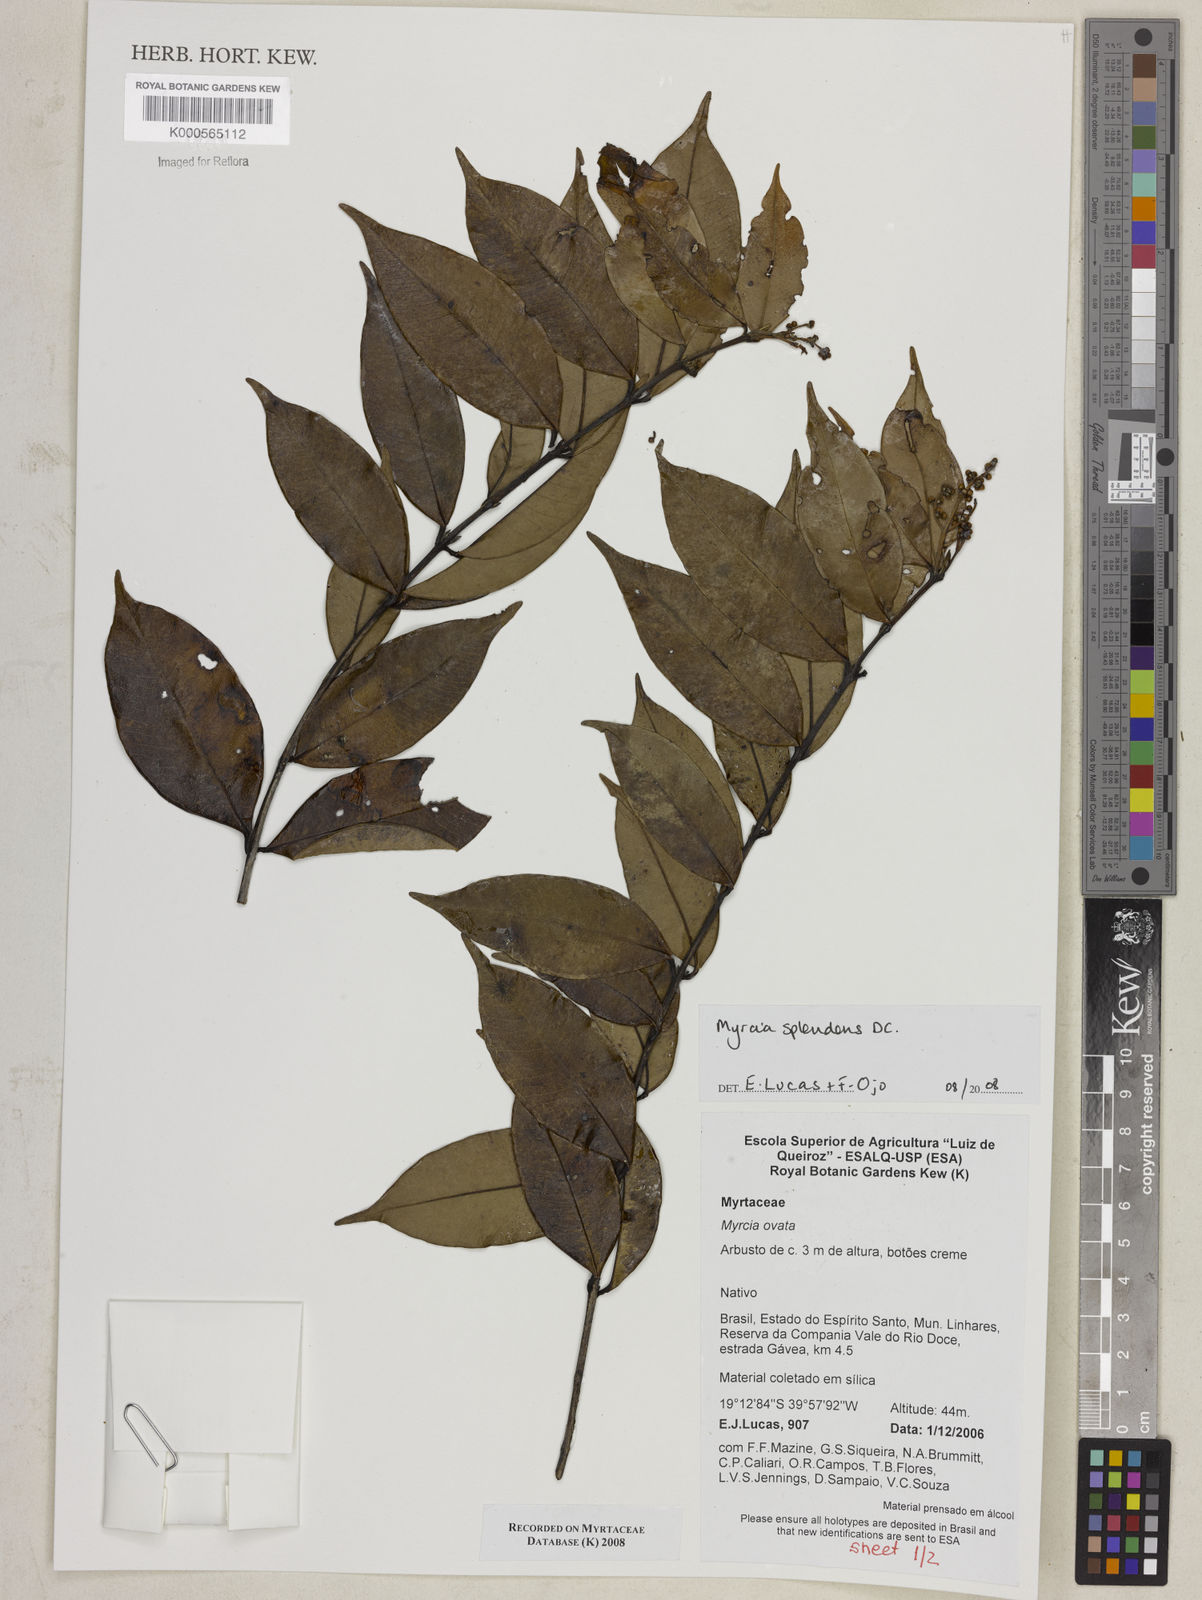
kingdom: Plantae
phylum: Tracheophyta
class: Magnoliopsida
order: Myrtales
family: Myrtaceae
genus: Myrcia
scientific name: Myrcia splendens
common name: Surinam cherry
